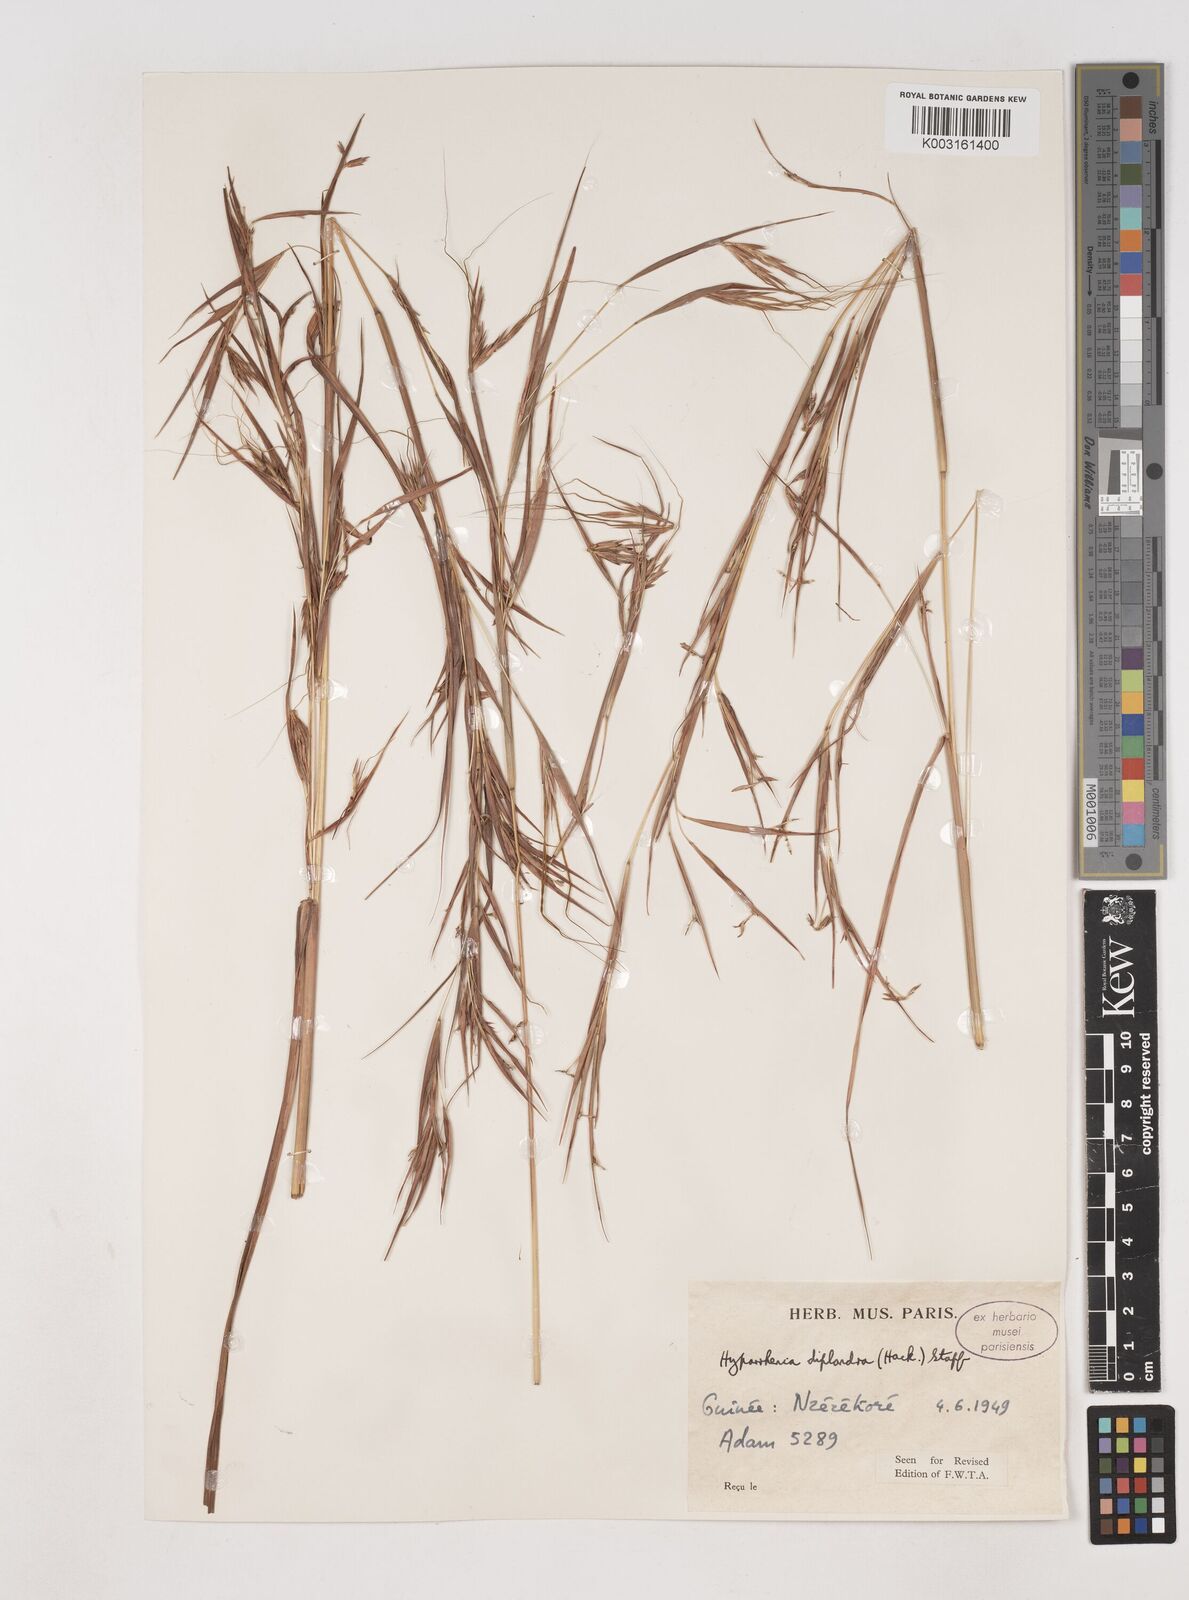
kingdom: Plantae
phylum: Tracheophyta
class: Liliopsida
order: Poales
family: Poaceae
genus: Hyparrhenia
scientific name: Hyparrhenia diplandra
